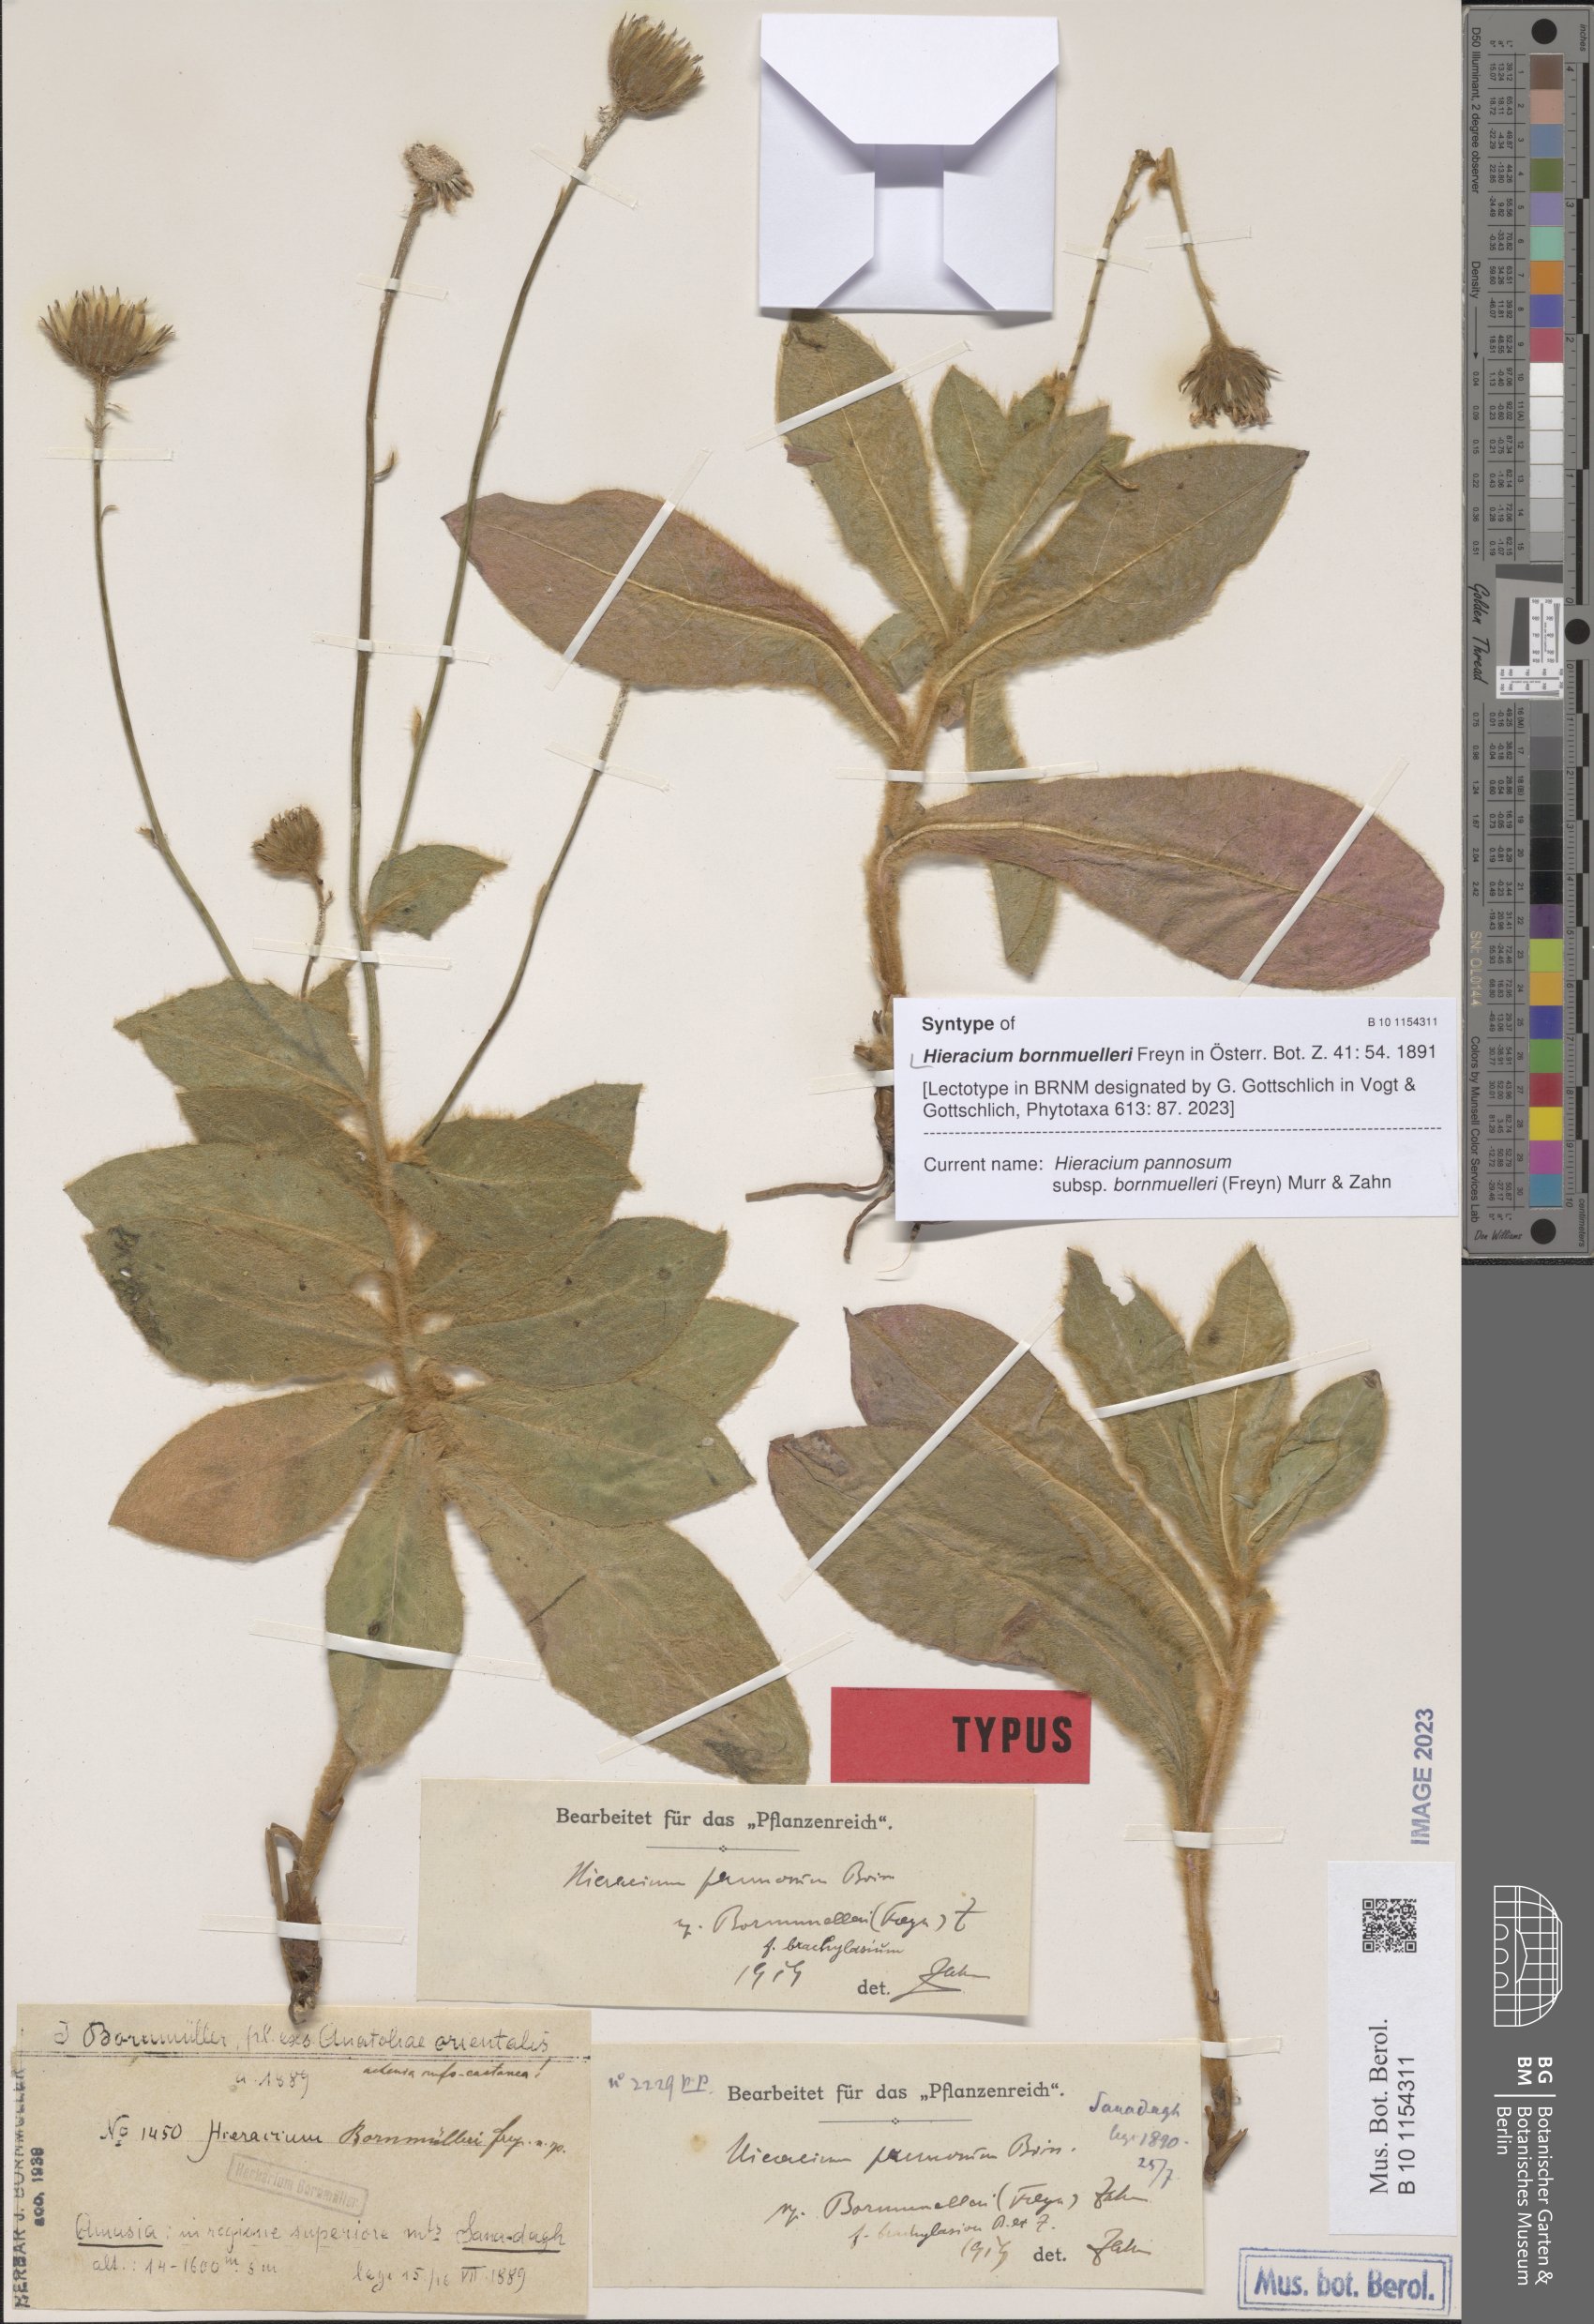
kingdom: Plantae
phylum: Tracheophyta
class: Magnoliopsida
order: Asterales
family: Asteraceae
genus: Hieracium
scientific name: Hieracium pannosum
